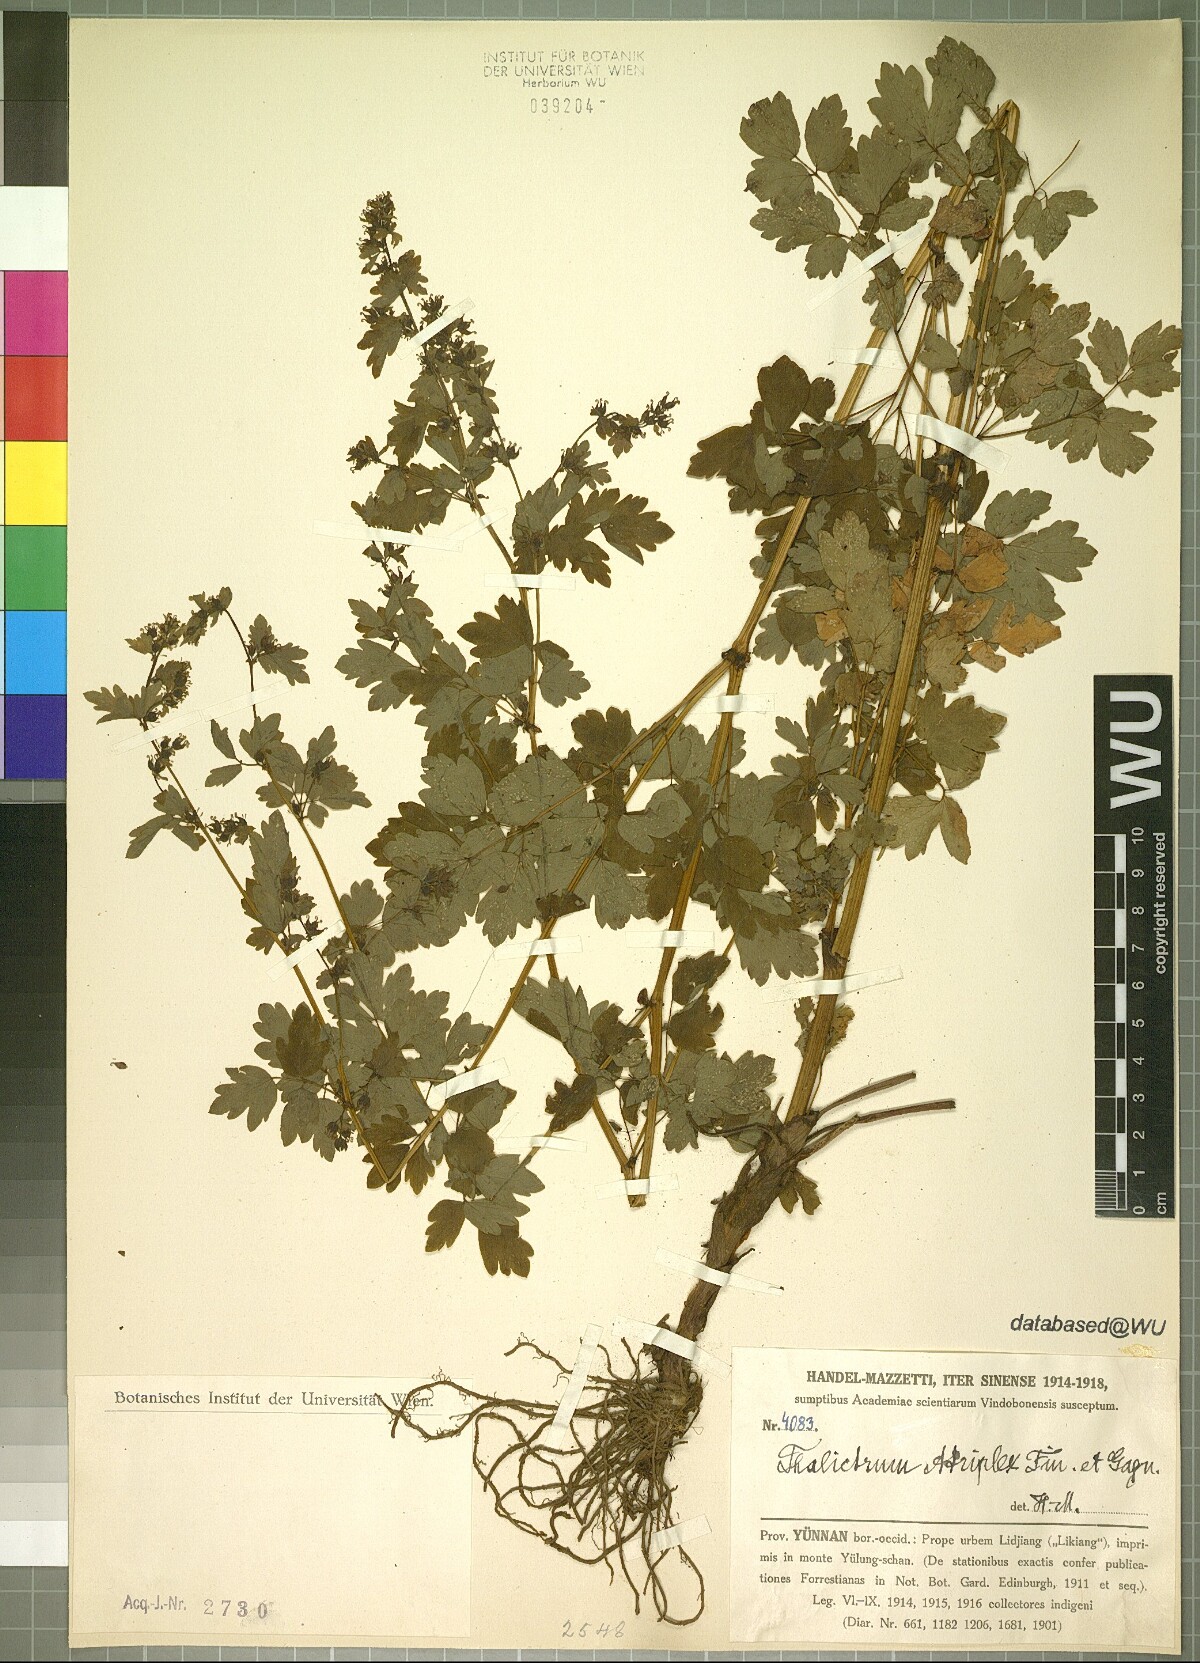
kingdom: Plantae
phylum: Tracheophyta
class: Magnoliopsida
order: Ranunculales
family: Ranunculaceae
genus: Thalictrum
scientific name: Thalictrum atriplex
